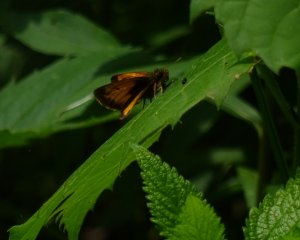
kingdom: Animalia
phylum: Arthropoda
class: Insecta
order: Lepidoptera
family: Hesperiidae
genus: Lon
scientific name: Lon hobomok
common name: Hobomok Skipper
